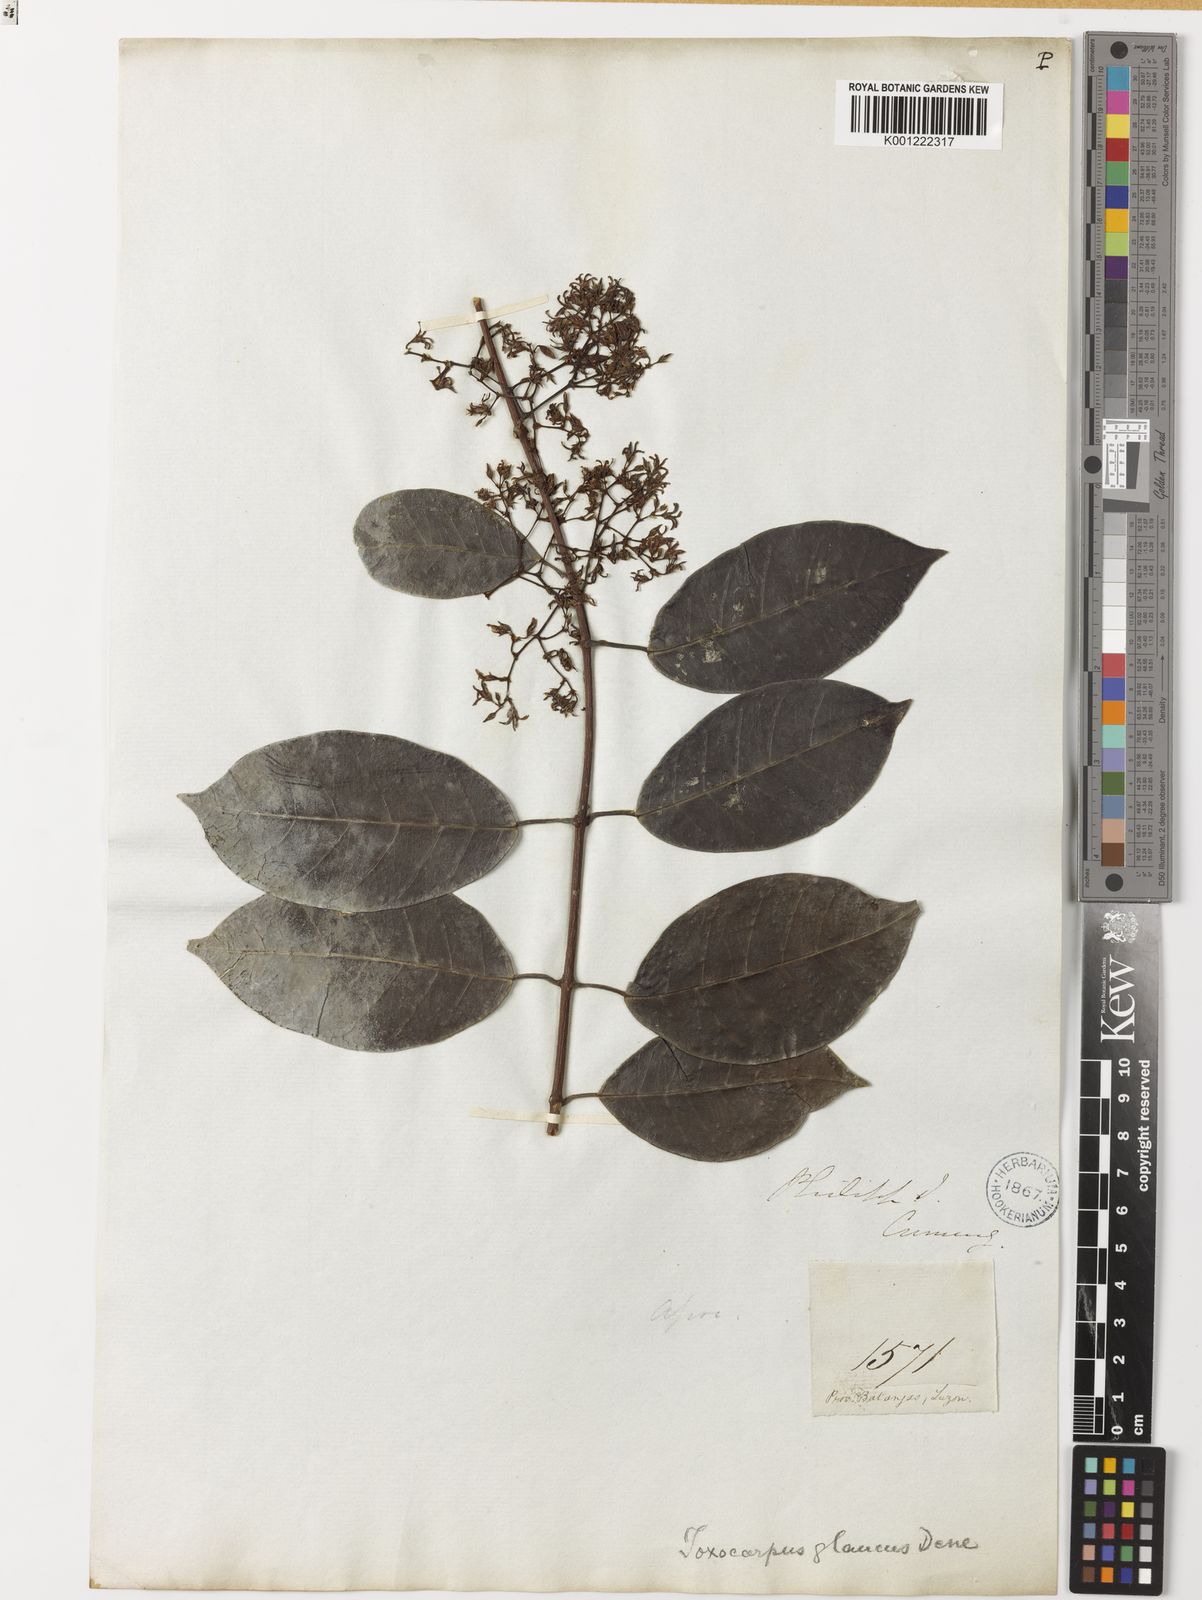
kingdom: Plantae
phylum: Tracheophyta
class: Magnoliopsida
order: Gentianales
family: Apocynaceae
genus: Toxocarpus
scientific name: Toxocarpus glaucus
